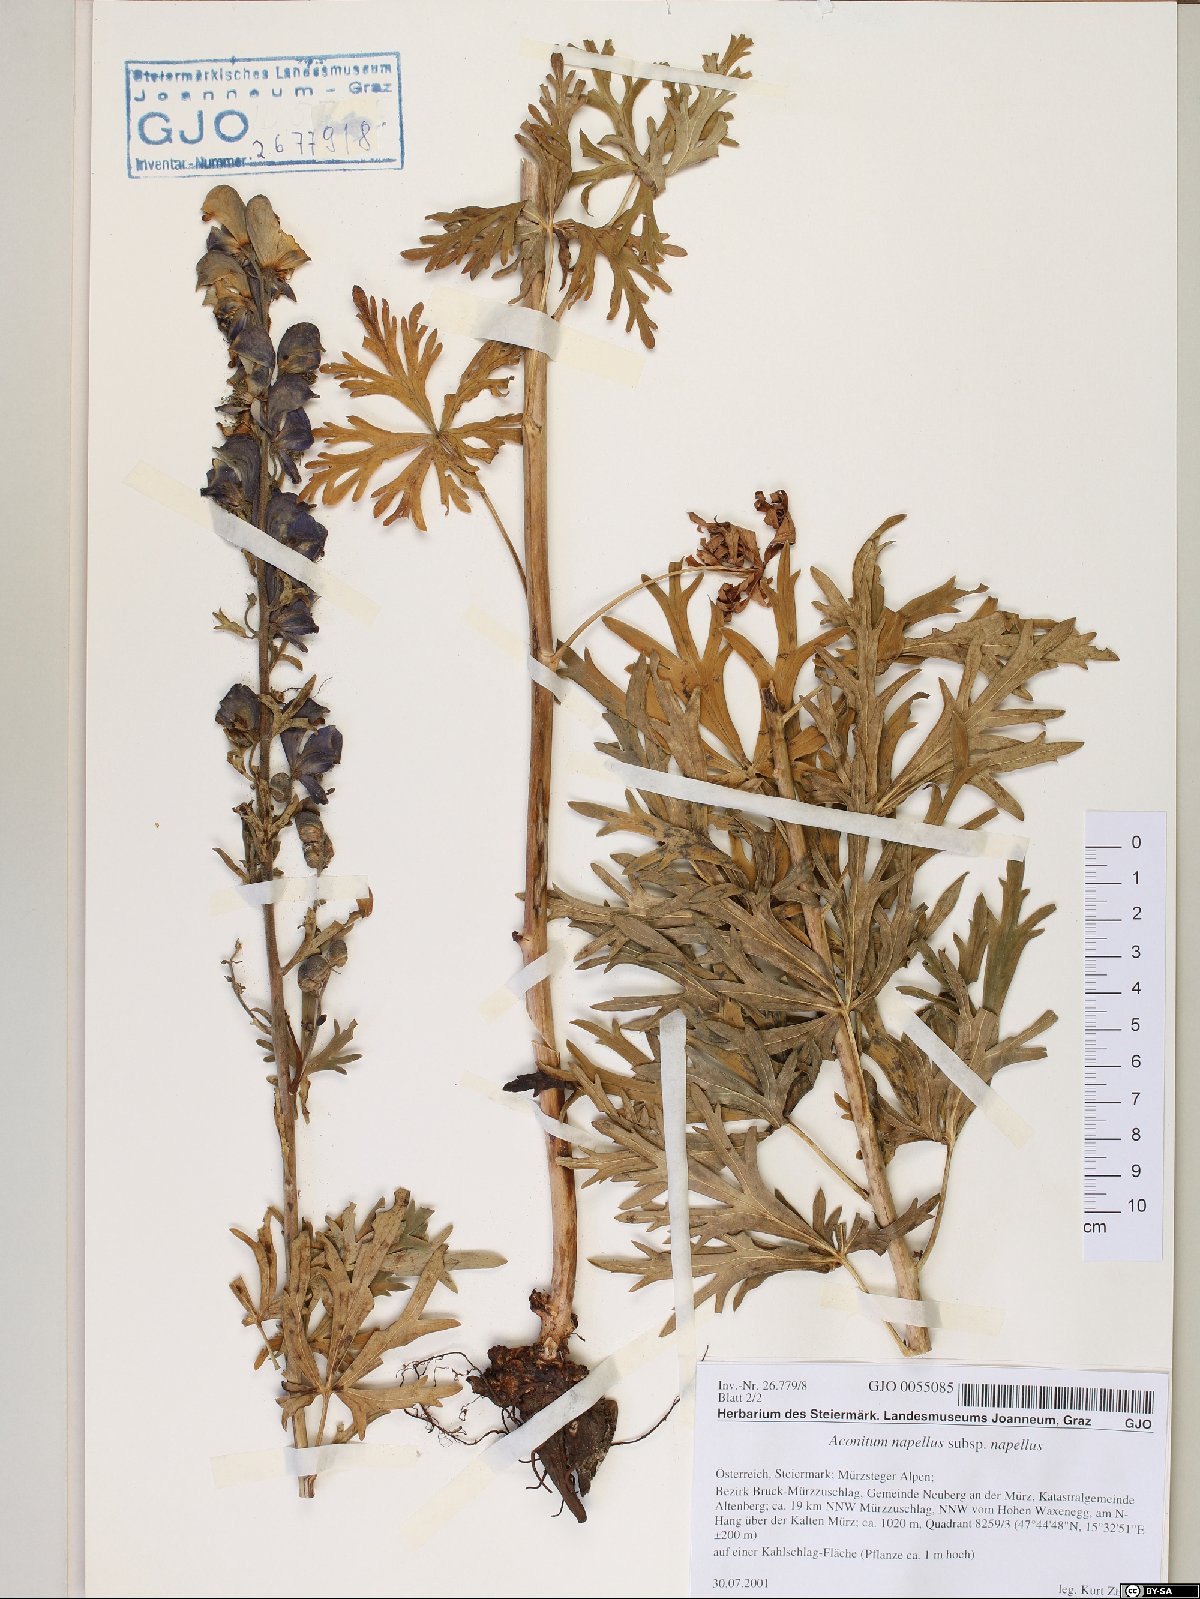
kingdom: Plantae
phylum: Tracheophyta
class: Magnoliopsida
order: Ranunculales
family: Ranunculaceae
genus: Aconitum
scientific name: Aconitum napellus
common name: Garden monkshood
